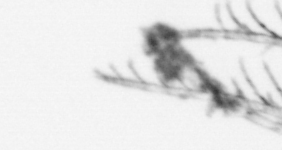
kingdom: Animalia
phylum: Arthropoda
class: Maxillopoda
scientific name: Maxillopoda
